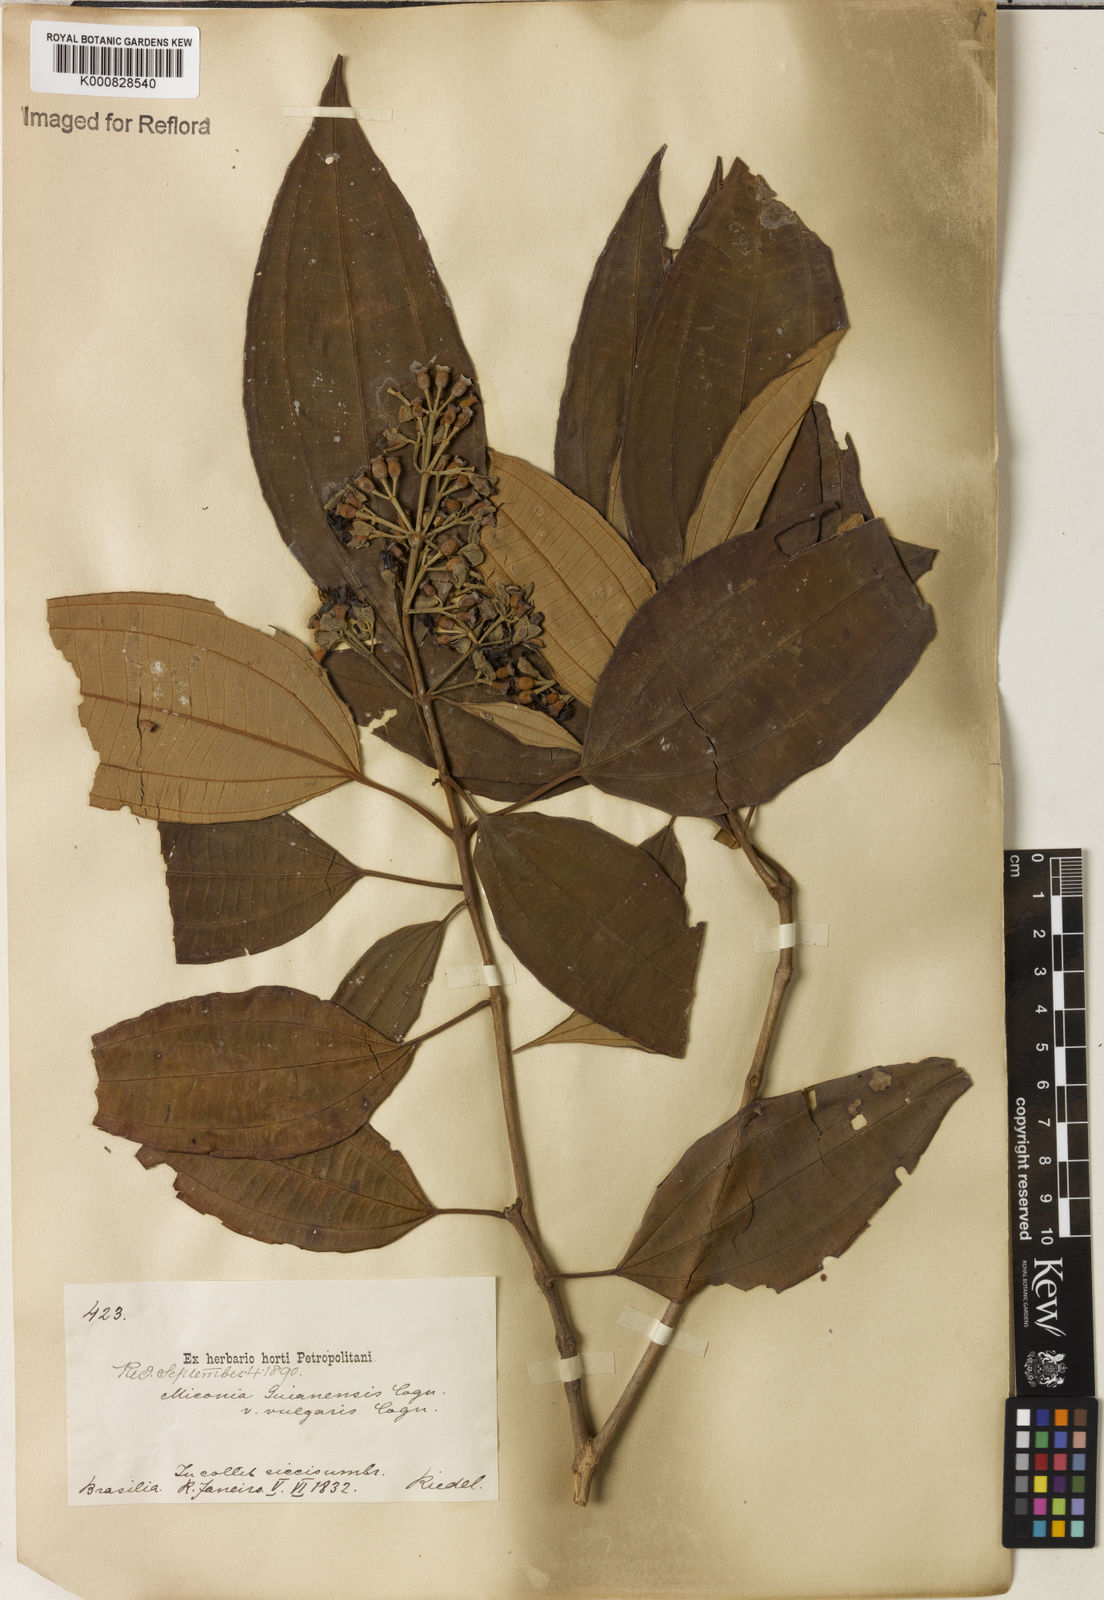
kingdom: Plantae
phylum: Tracheophyta
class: Magnoliopsida
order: Myrtales
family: Melastomataceae
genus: Miconia
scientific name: Miconia mirabilis
